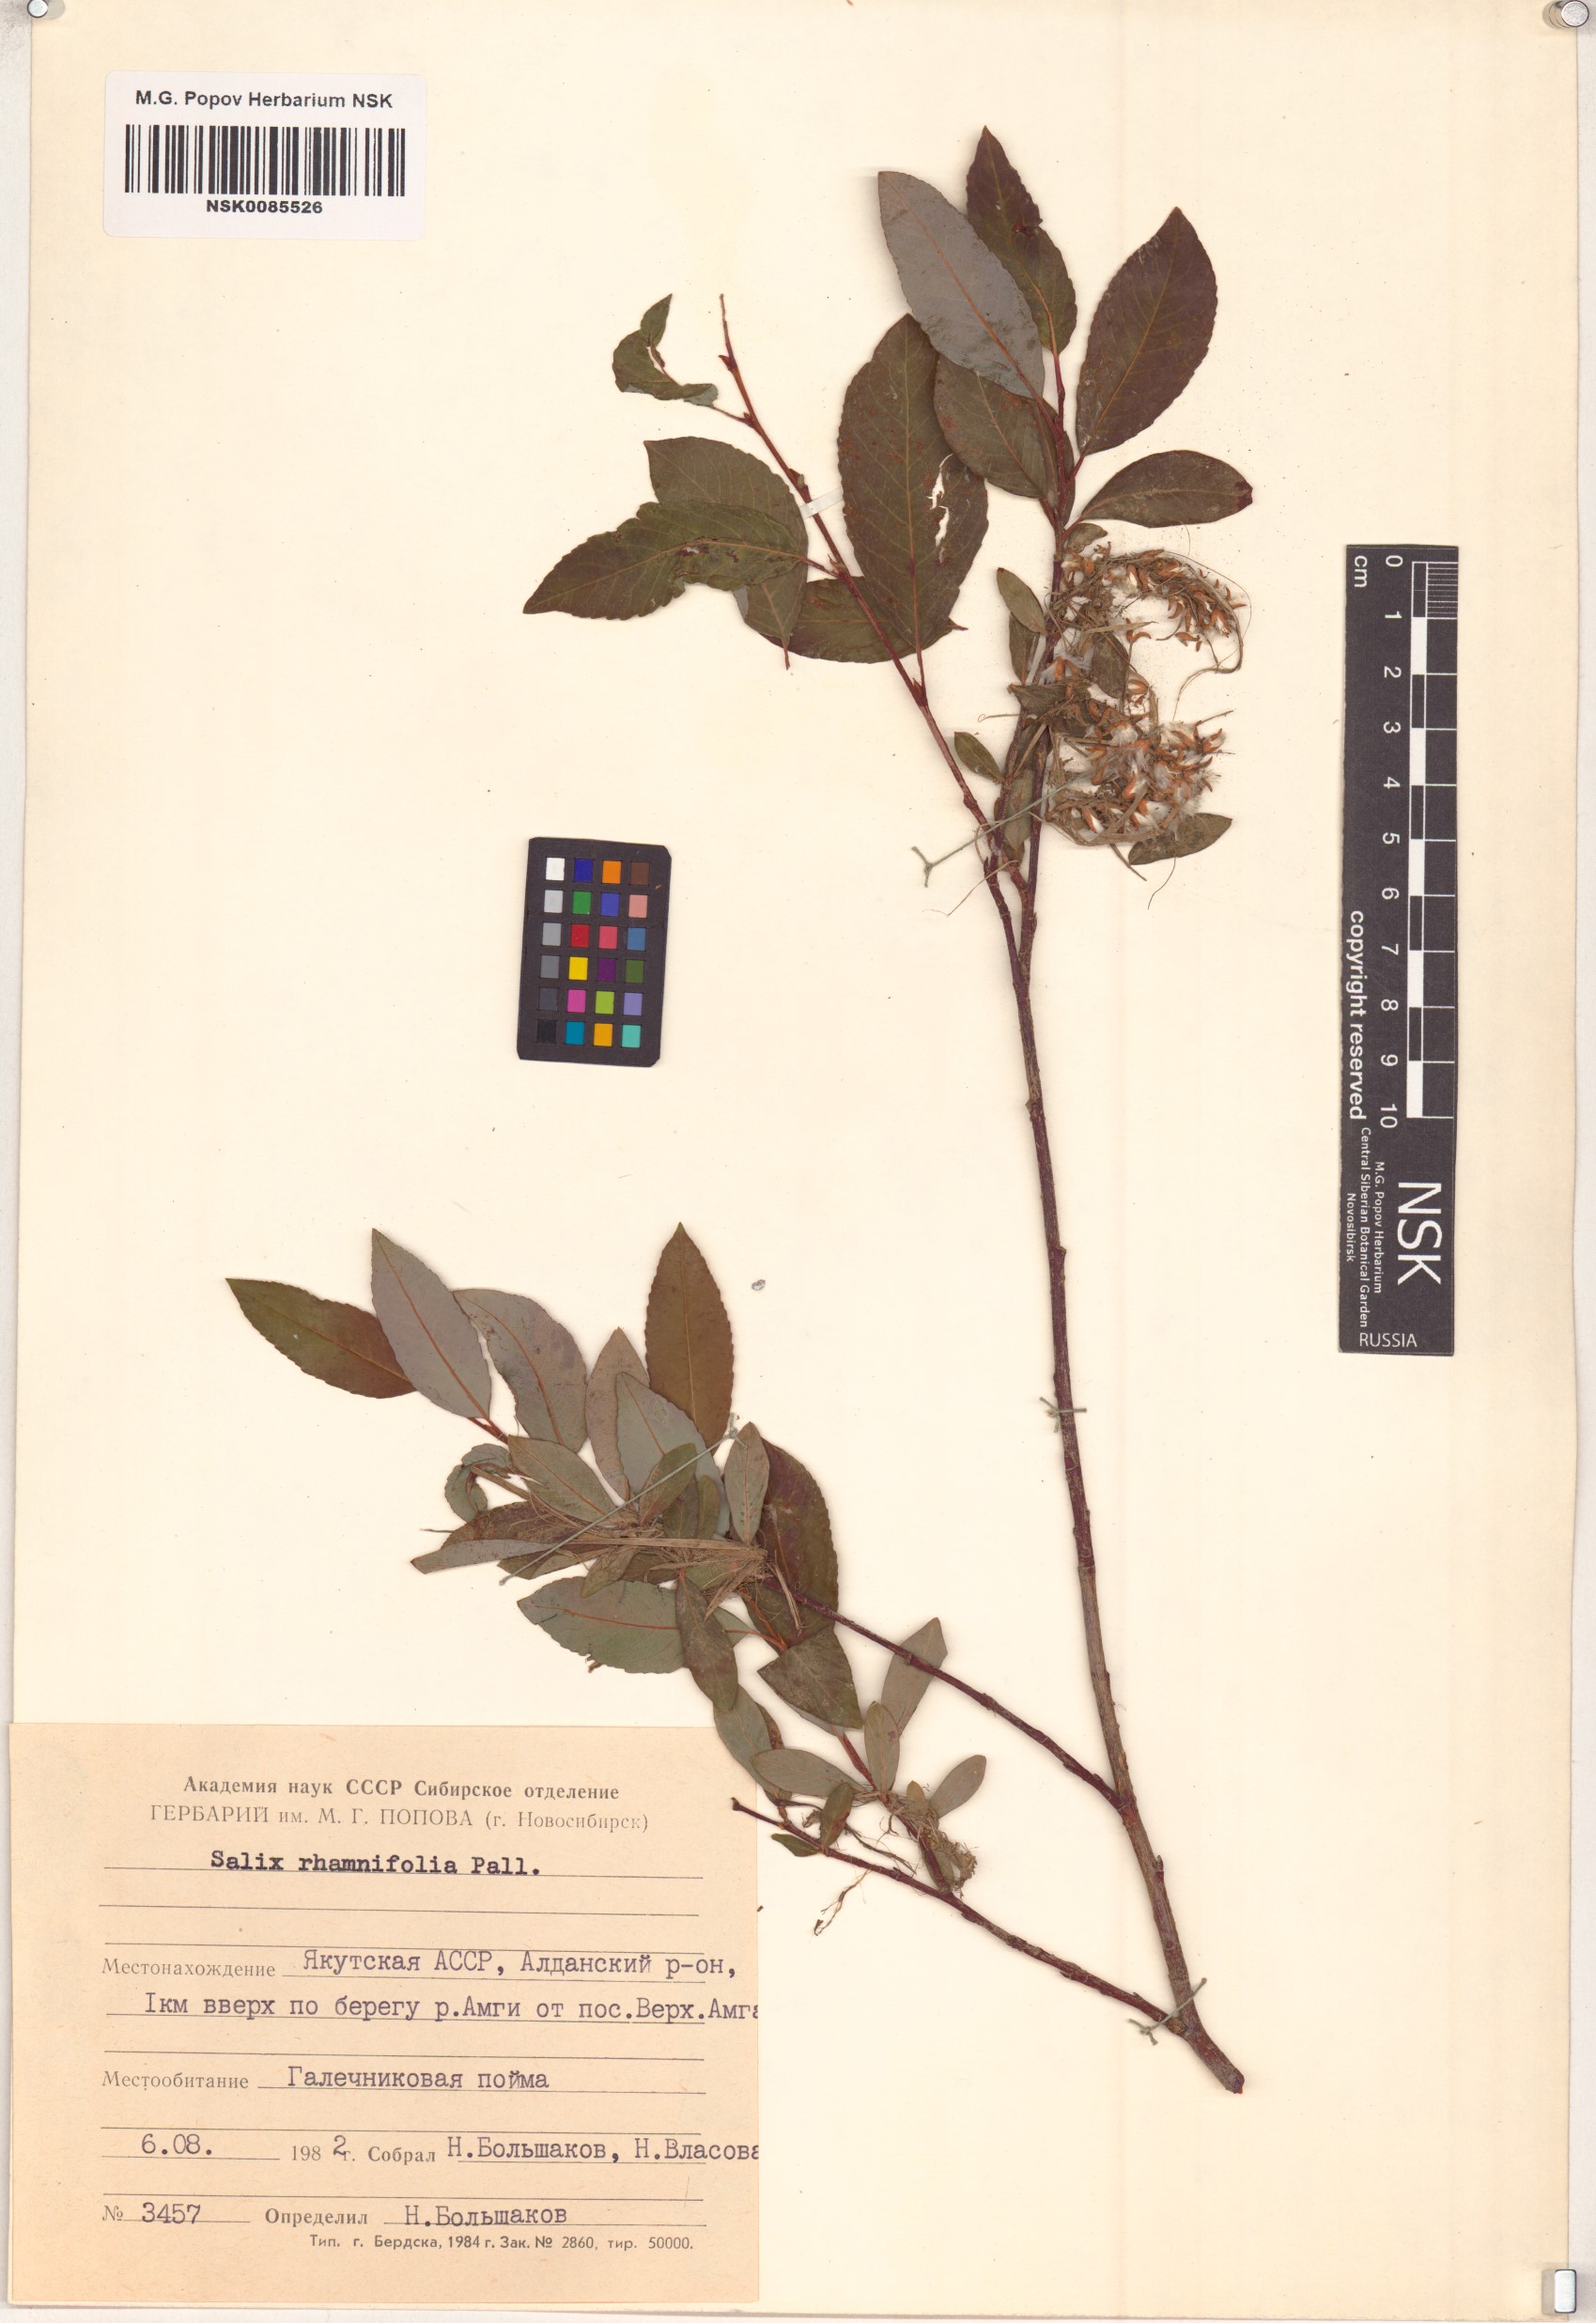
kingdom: Plantae
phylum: Tracheophyta
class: Magnoliopsida
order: Malpighiales
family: Salicaceae
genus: Salix
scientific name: Salix rhamnifolia
